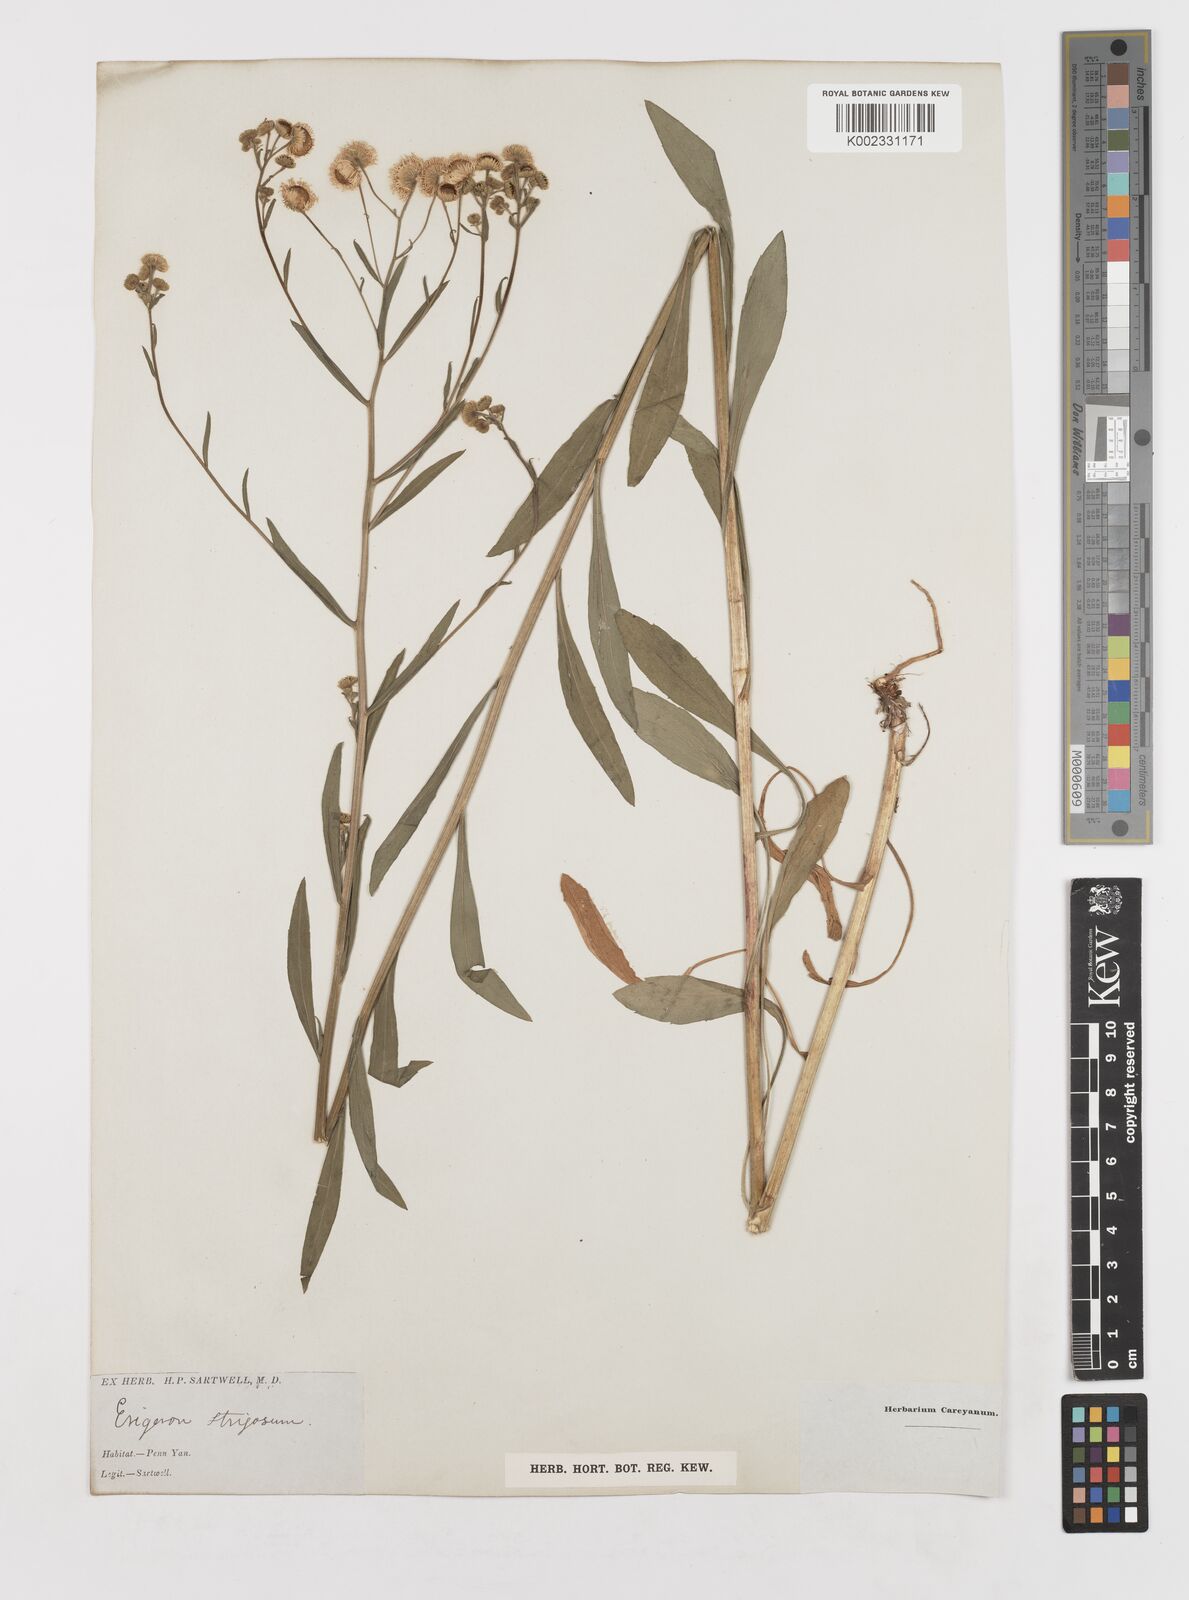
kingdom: Plantae
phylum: Tracheophyta
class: Magnoliopsida
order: Asterales
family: Asteraceae
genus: Erigeron
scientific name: Erigeron
